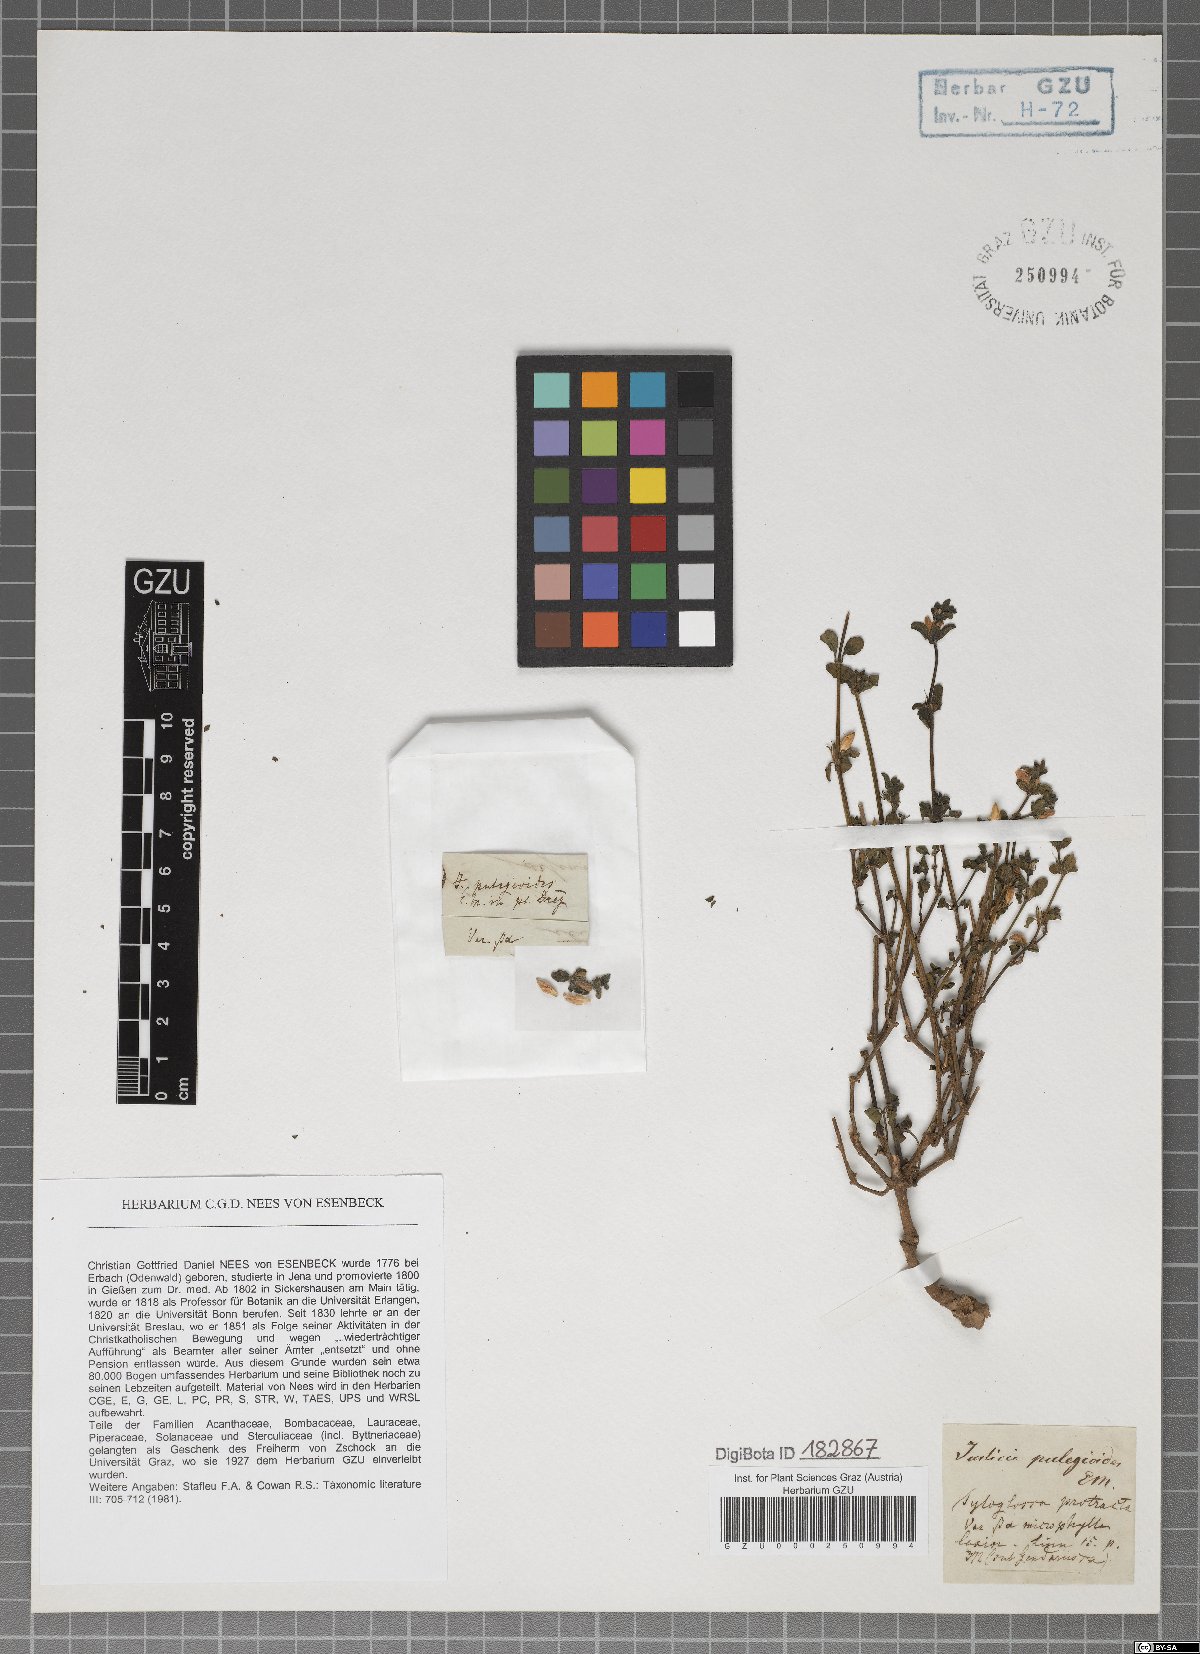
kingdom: Plantae
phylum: Tracheophyta
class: Magnoliopsida
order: Lamiales
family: Acanthaceae
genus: Justicia
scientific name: Justicia protracta
